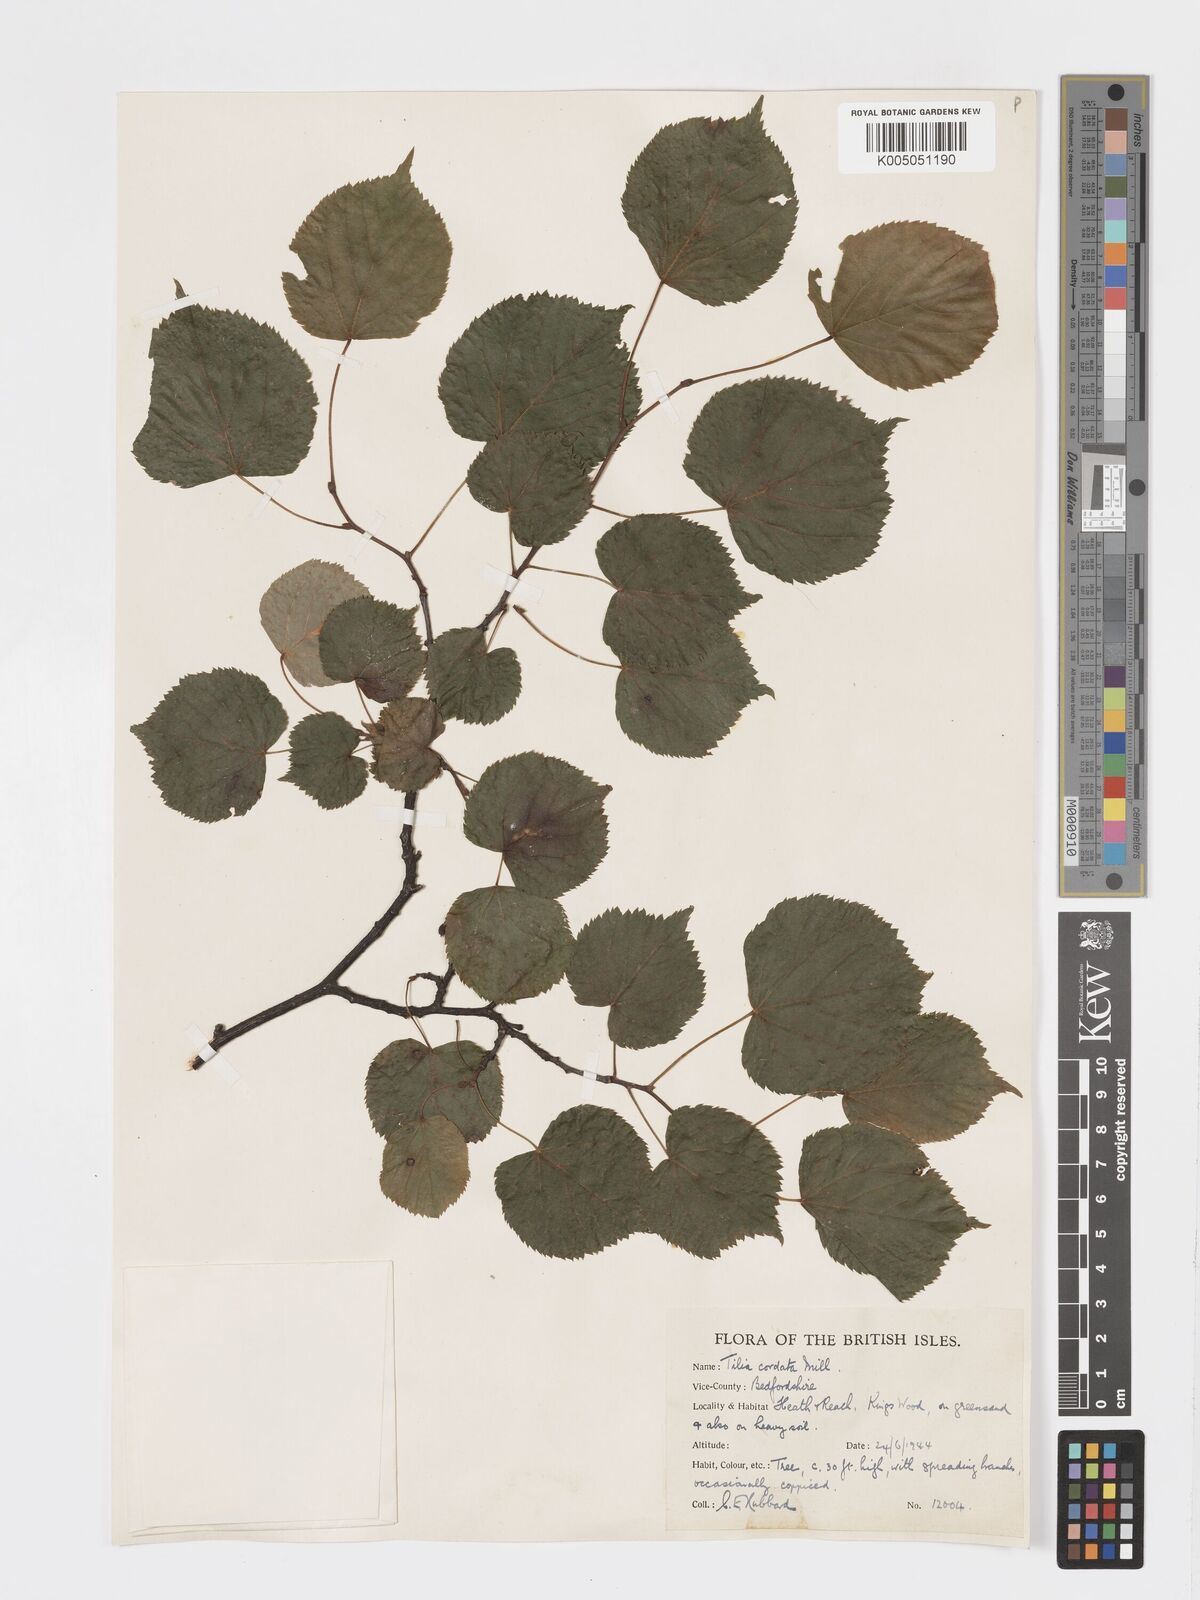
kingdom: Plantae
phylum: Tracheophyta
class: Magnoliopsida
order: Malvales
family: Malvaceae
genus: Tilia
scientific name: Tilia
